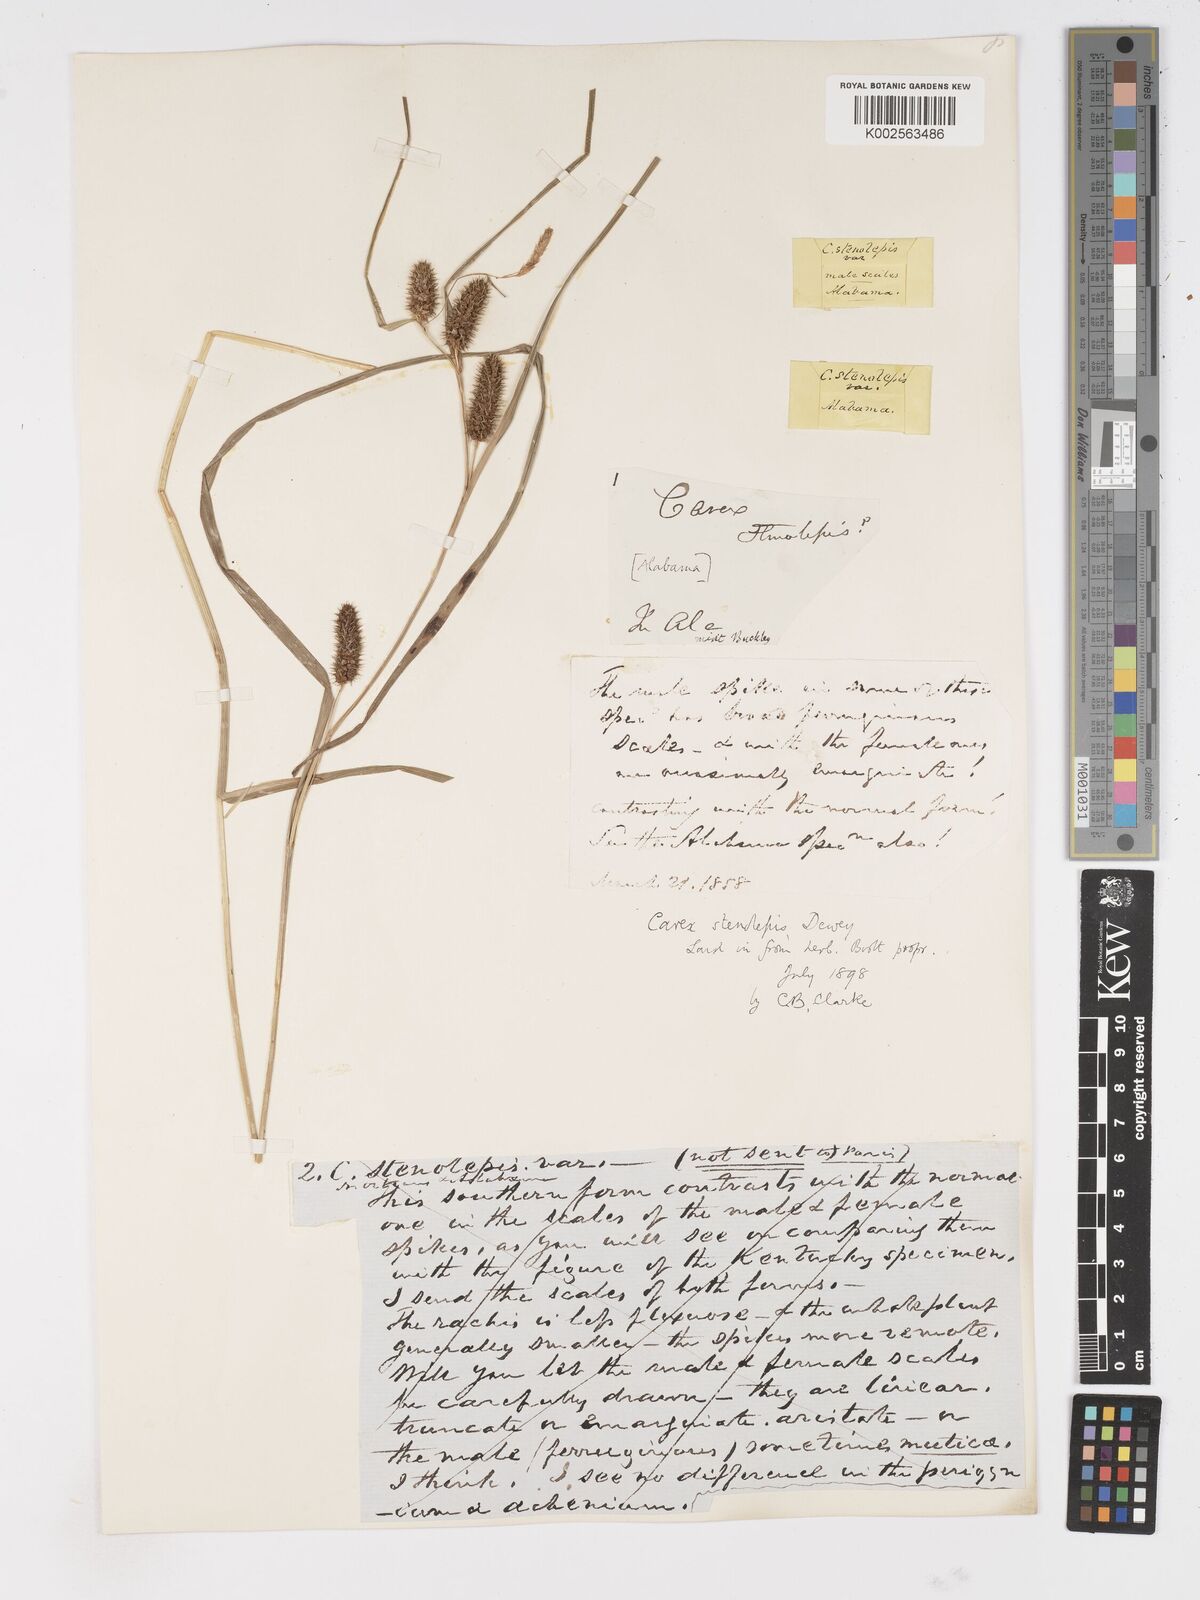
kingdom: Plantae
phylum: Tracheophyta
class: Liliopsida
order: Poales
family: Cyperaceae
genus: Carex
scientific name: Carex frankii
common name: Frank's sedge
